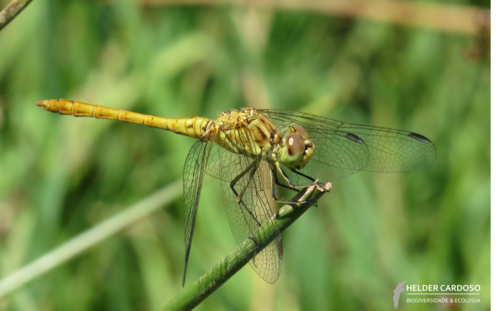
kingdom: Animalia
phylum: Arthropoda
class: Insecta
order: Odonata
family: Libellulidae
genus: Sympetrum
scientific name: Sympetrum meridionale
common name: Southern darter
